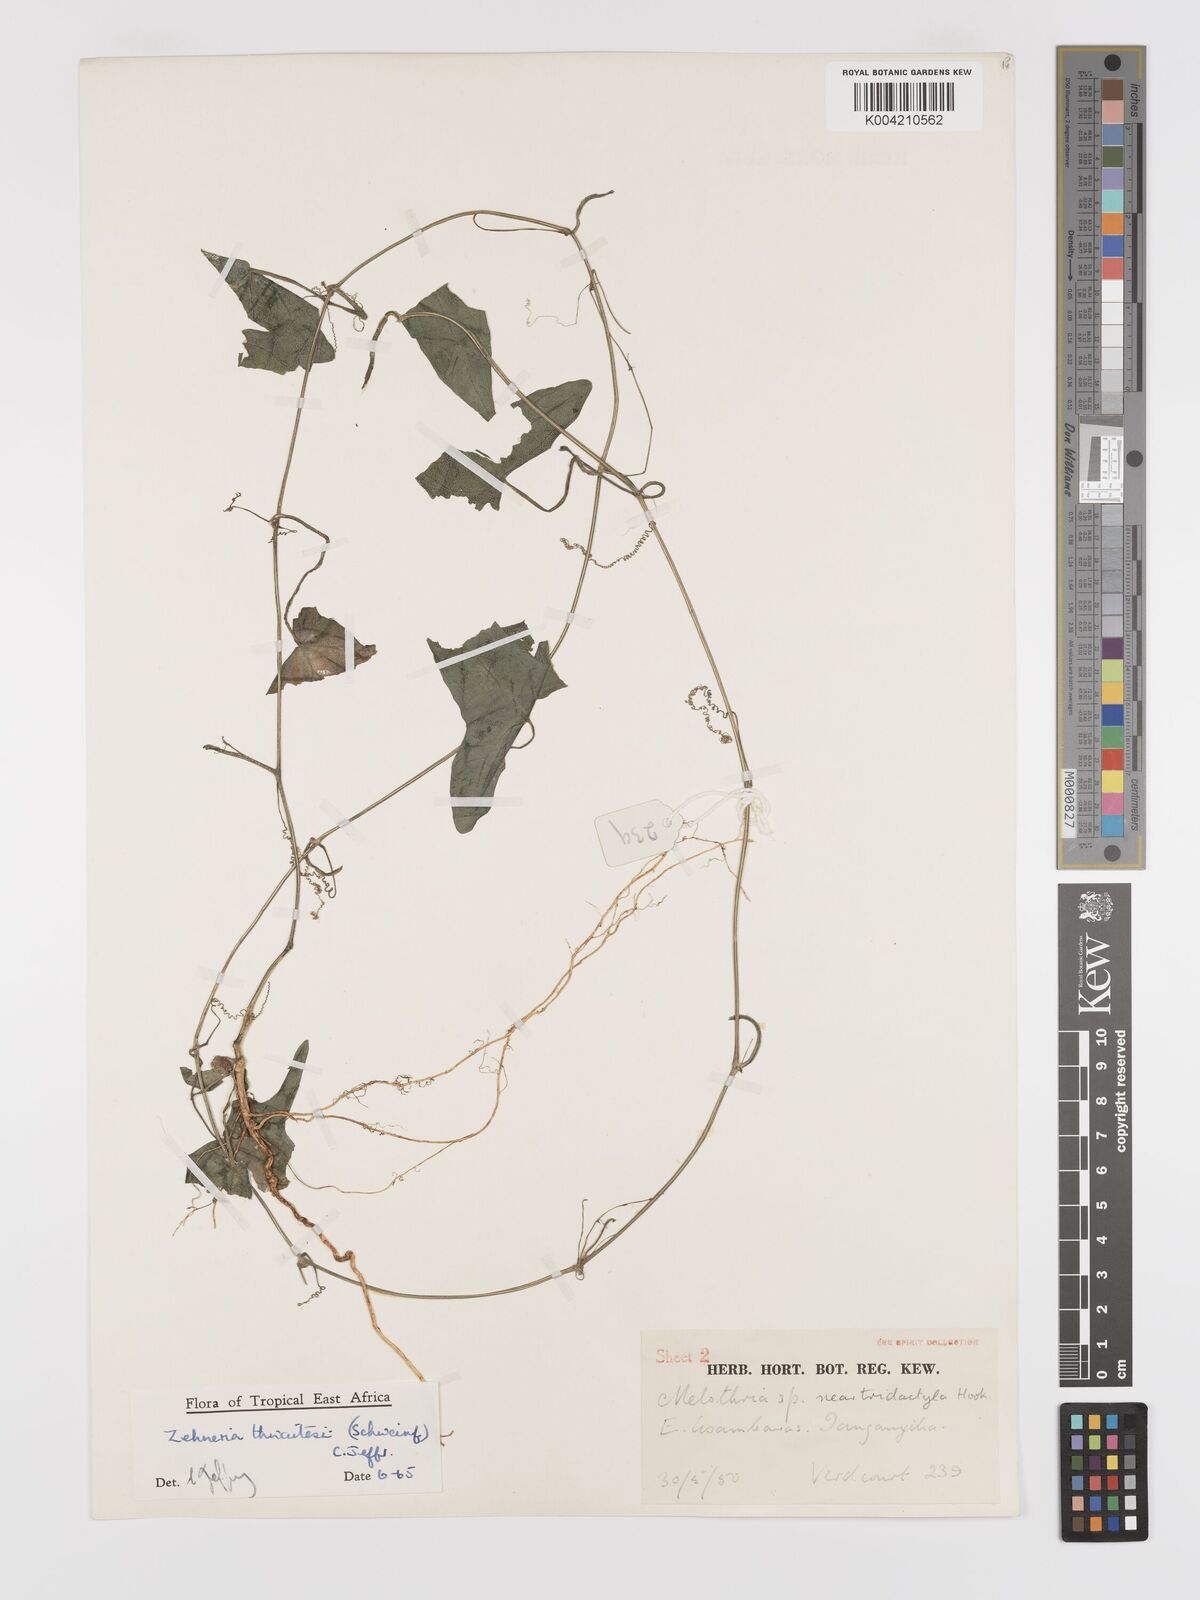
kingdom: Plantae
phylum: Tracheophyta
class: Magnoliopsida
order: Cucurbitales
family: Cucurbitaceae
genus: Zehneria
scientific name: Zehneria thwaitesii
